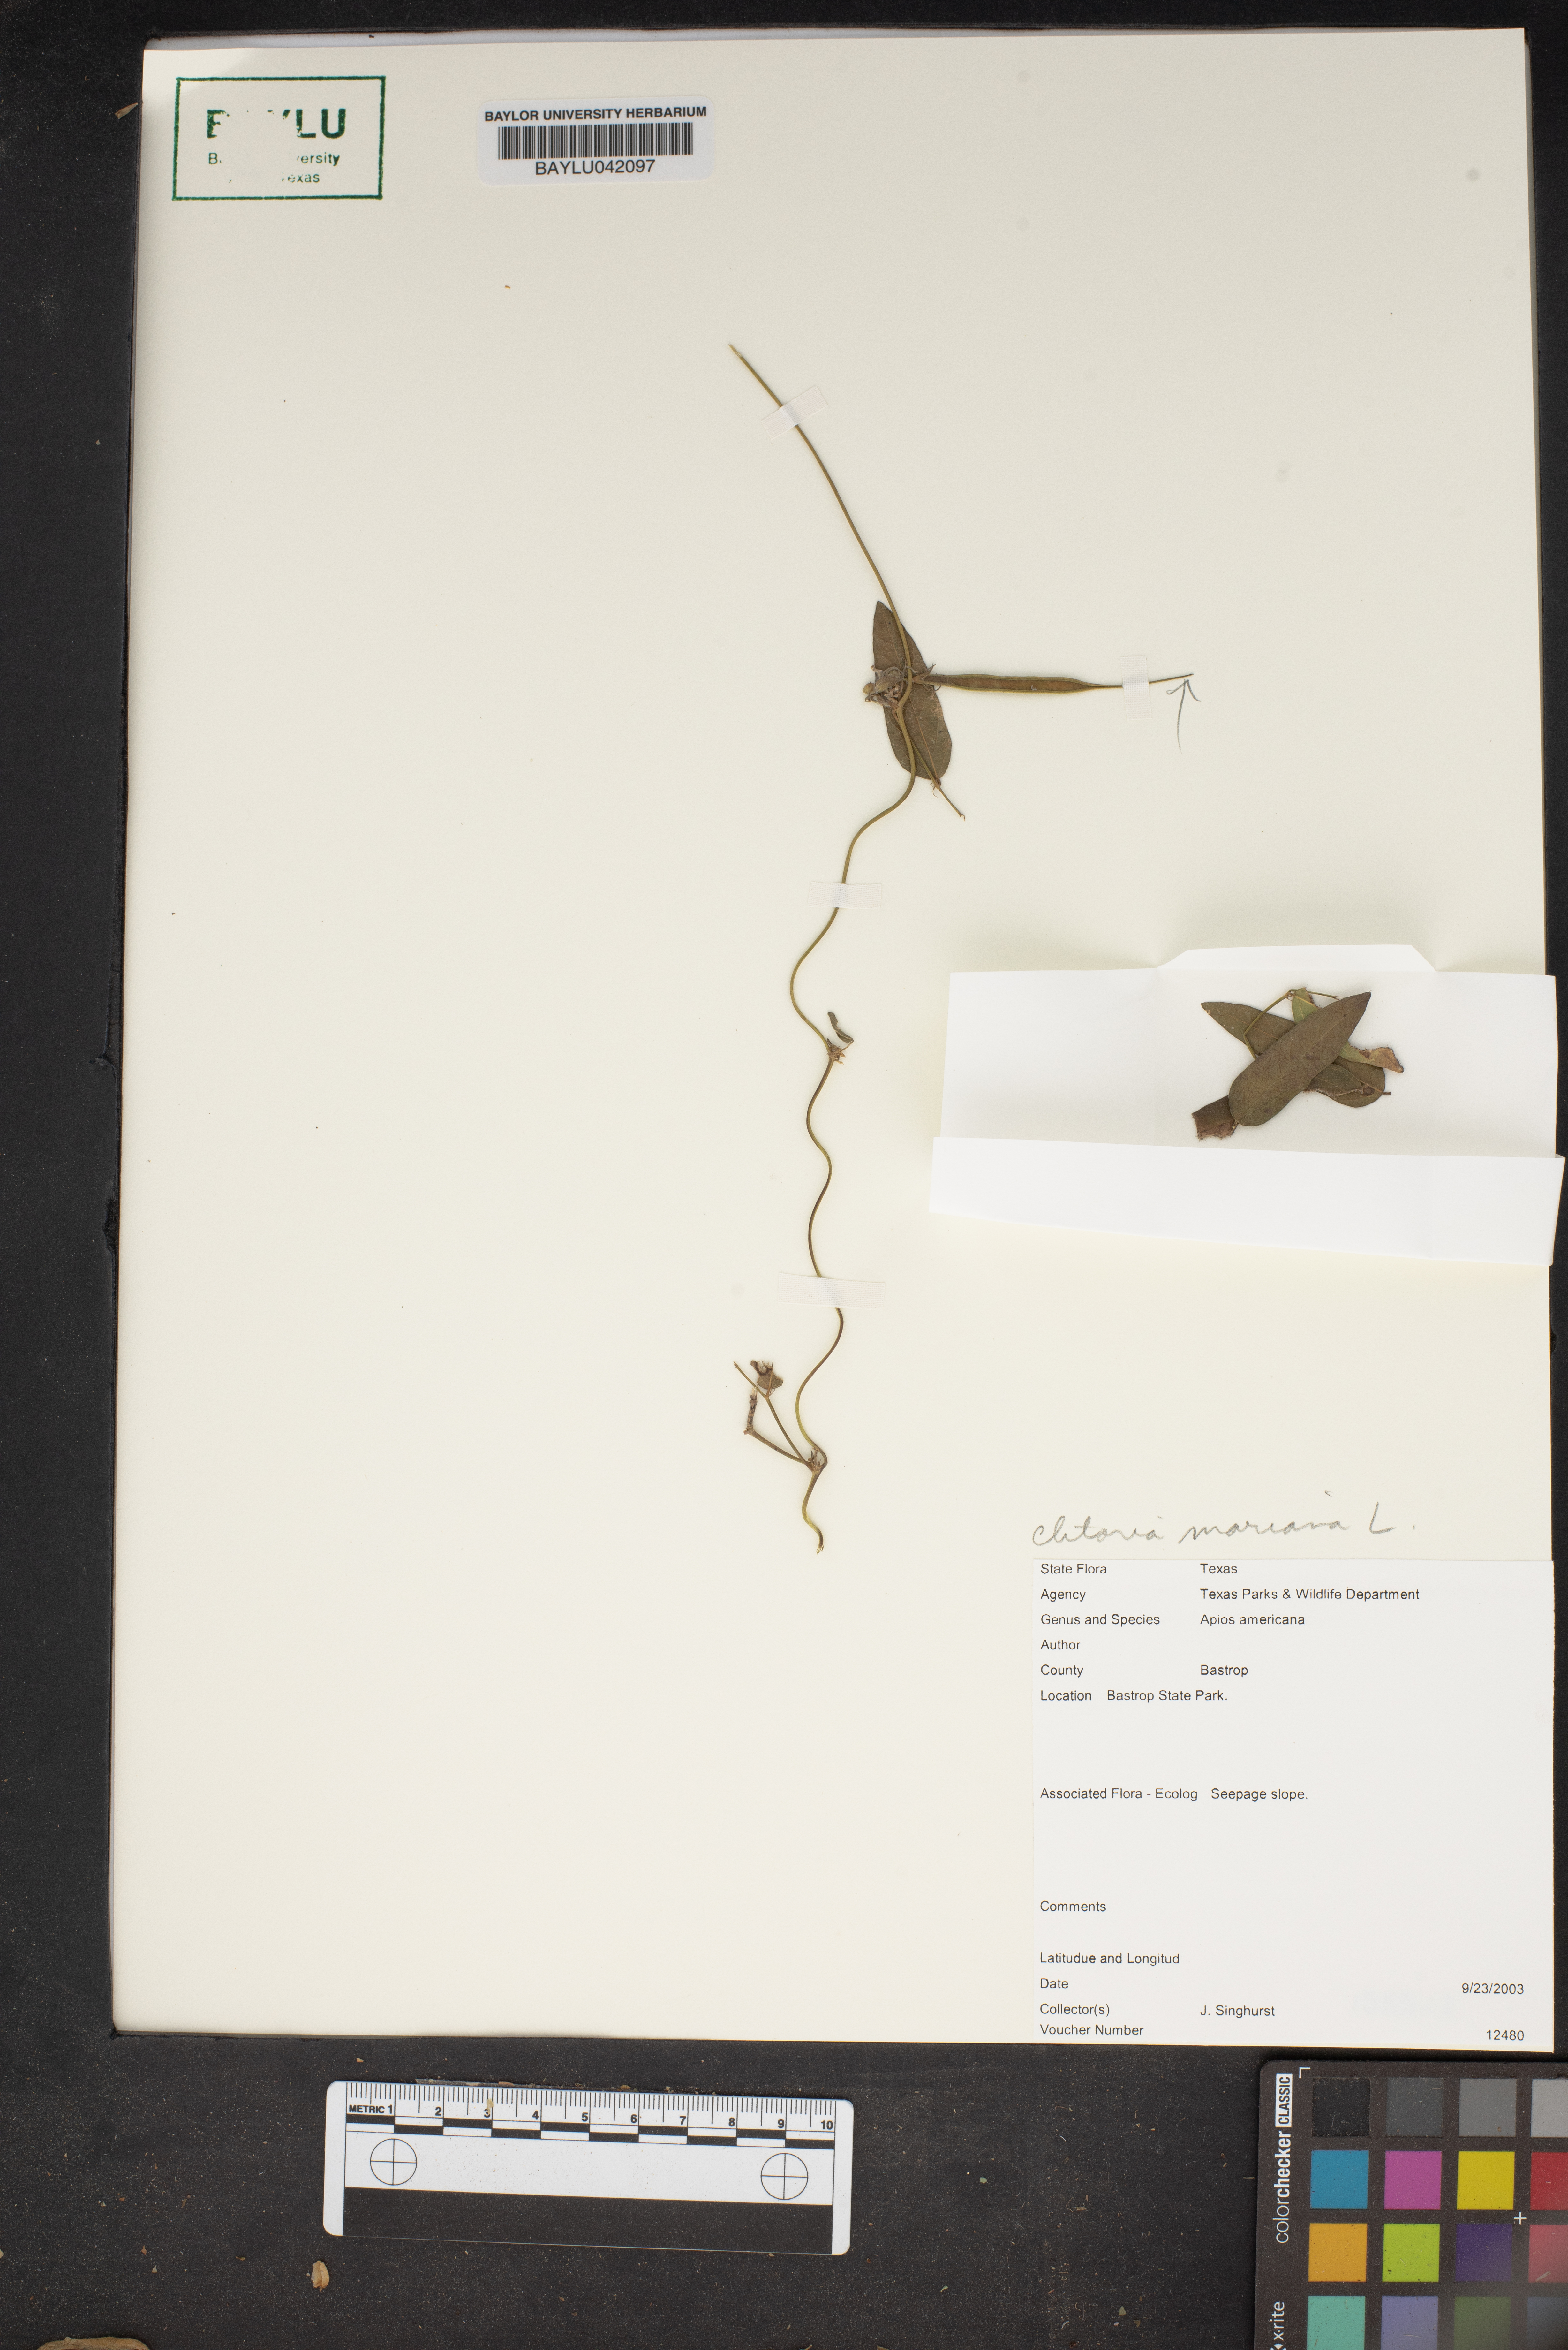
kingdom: Plantae
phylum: Tracheophyta
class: Magnoliopsida
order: Fabales
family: Fabaceae
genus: Apios
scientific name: Apios americana
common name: American potato-bean
